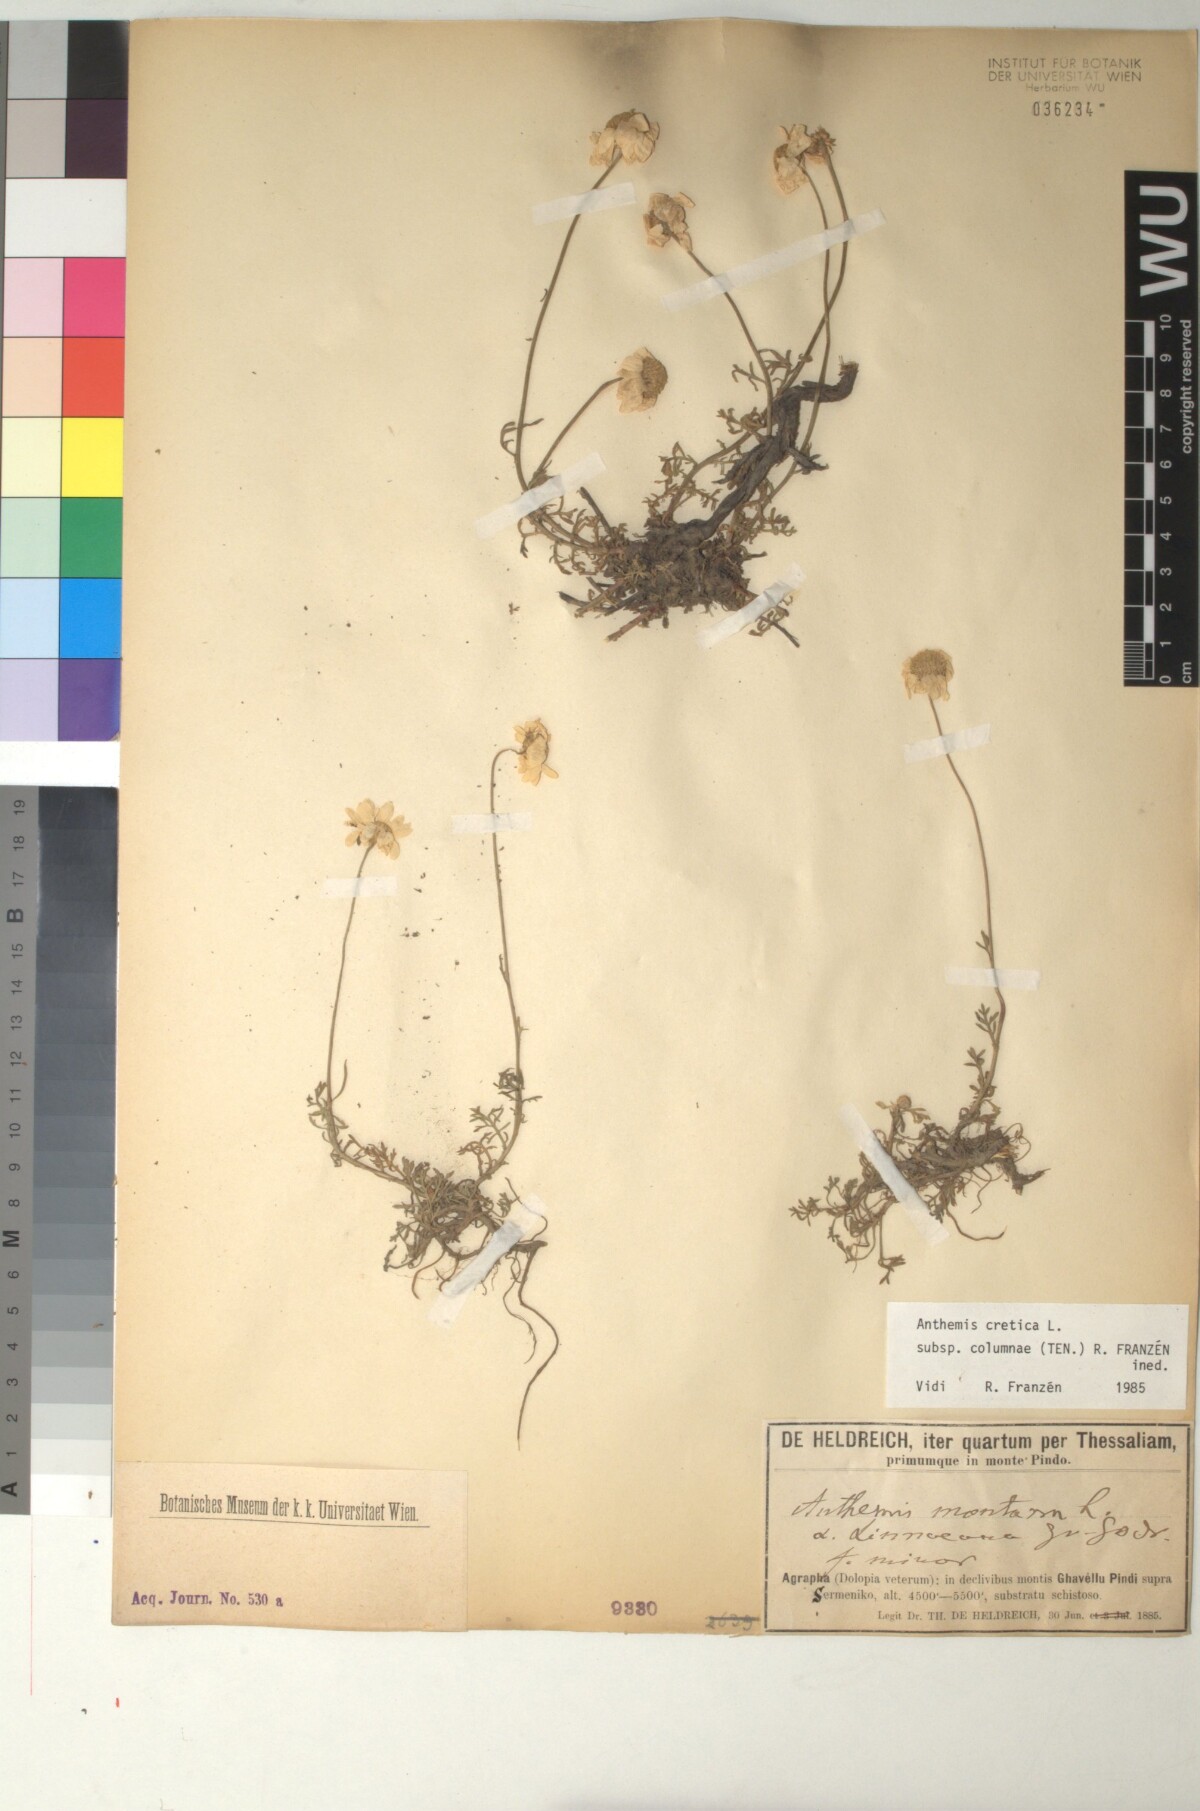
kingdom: Plantae
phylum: Tracheophyta
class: Magnoliopsida
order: Asterales
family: Asteraceae
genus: Anthemis
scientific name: Anthemis cretica
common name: Mountain dog-daisy
